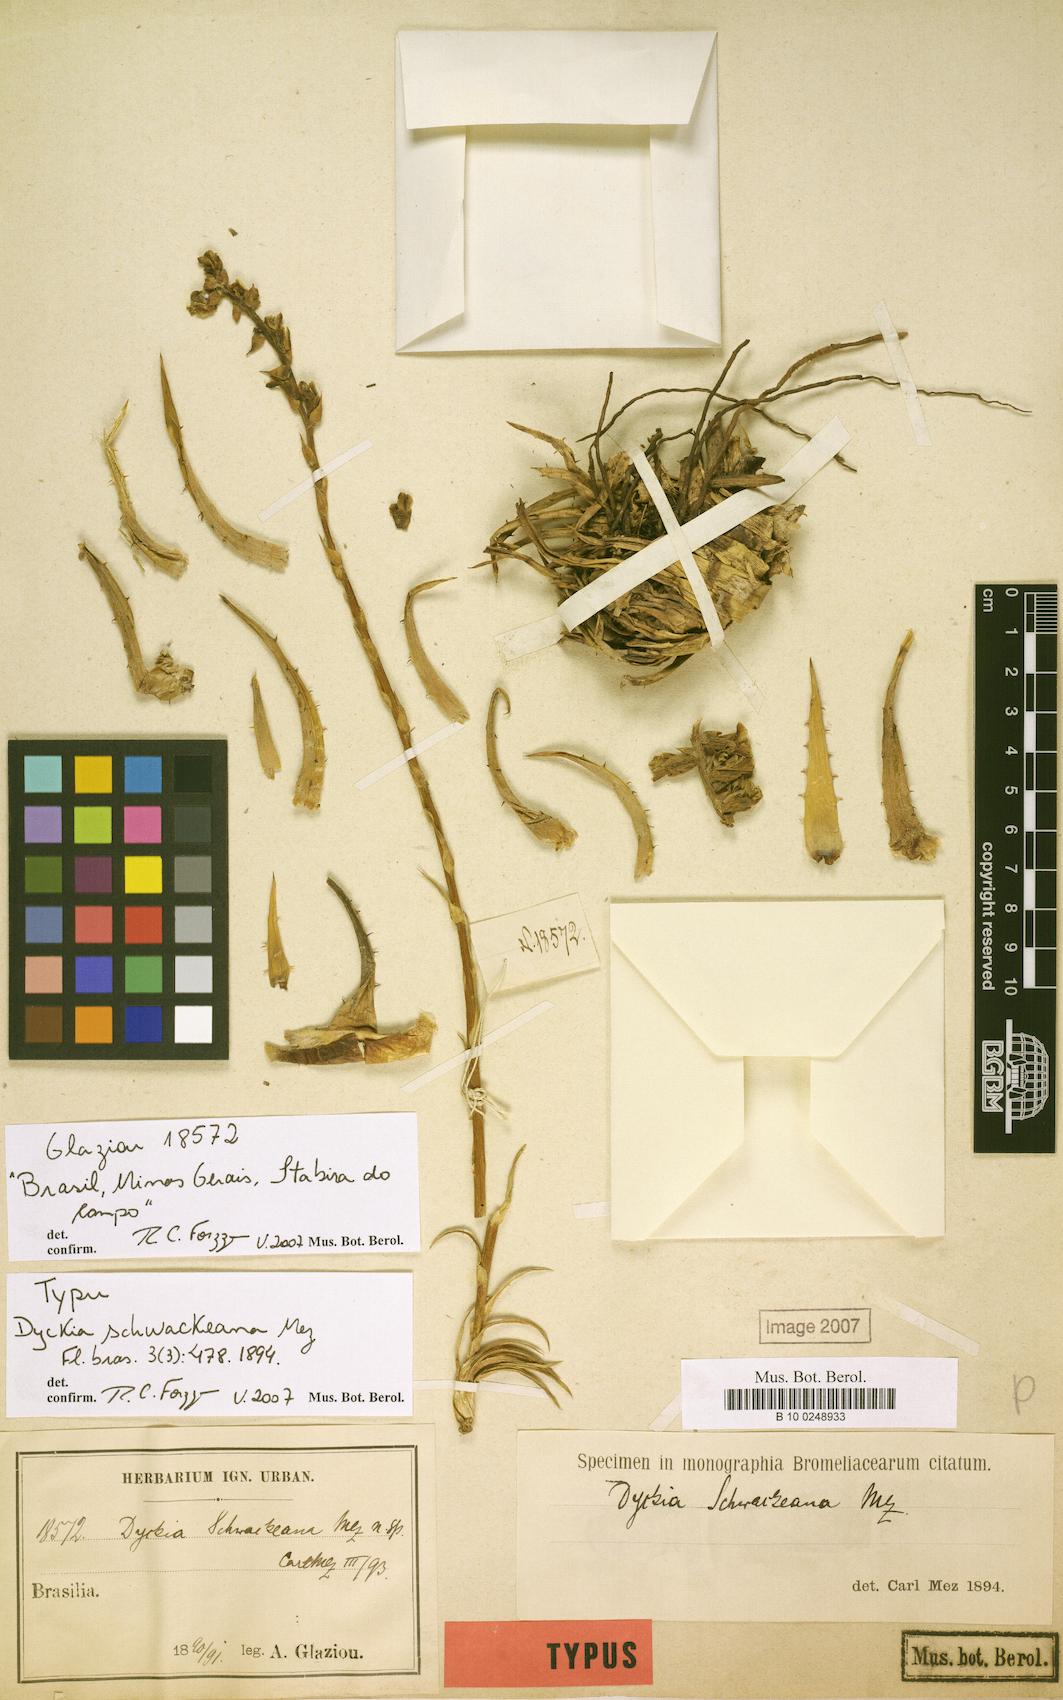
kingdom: Plantae
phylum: Tracheophyta
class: Liliopsida
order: Poales
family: Bromeliaceae
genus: Dyckia
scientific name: Dyckia schwackeana
